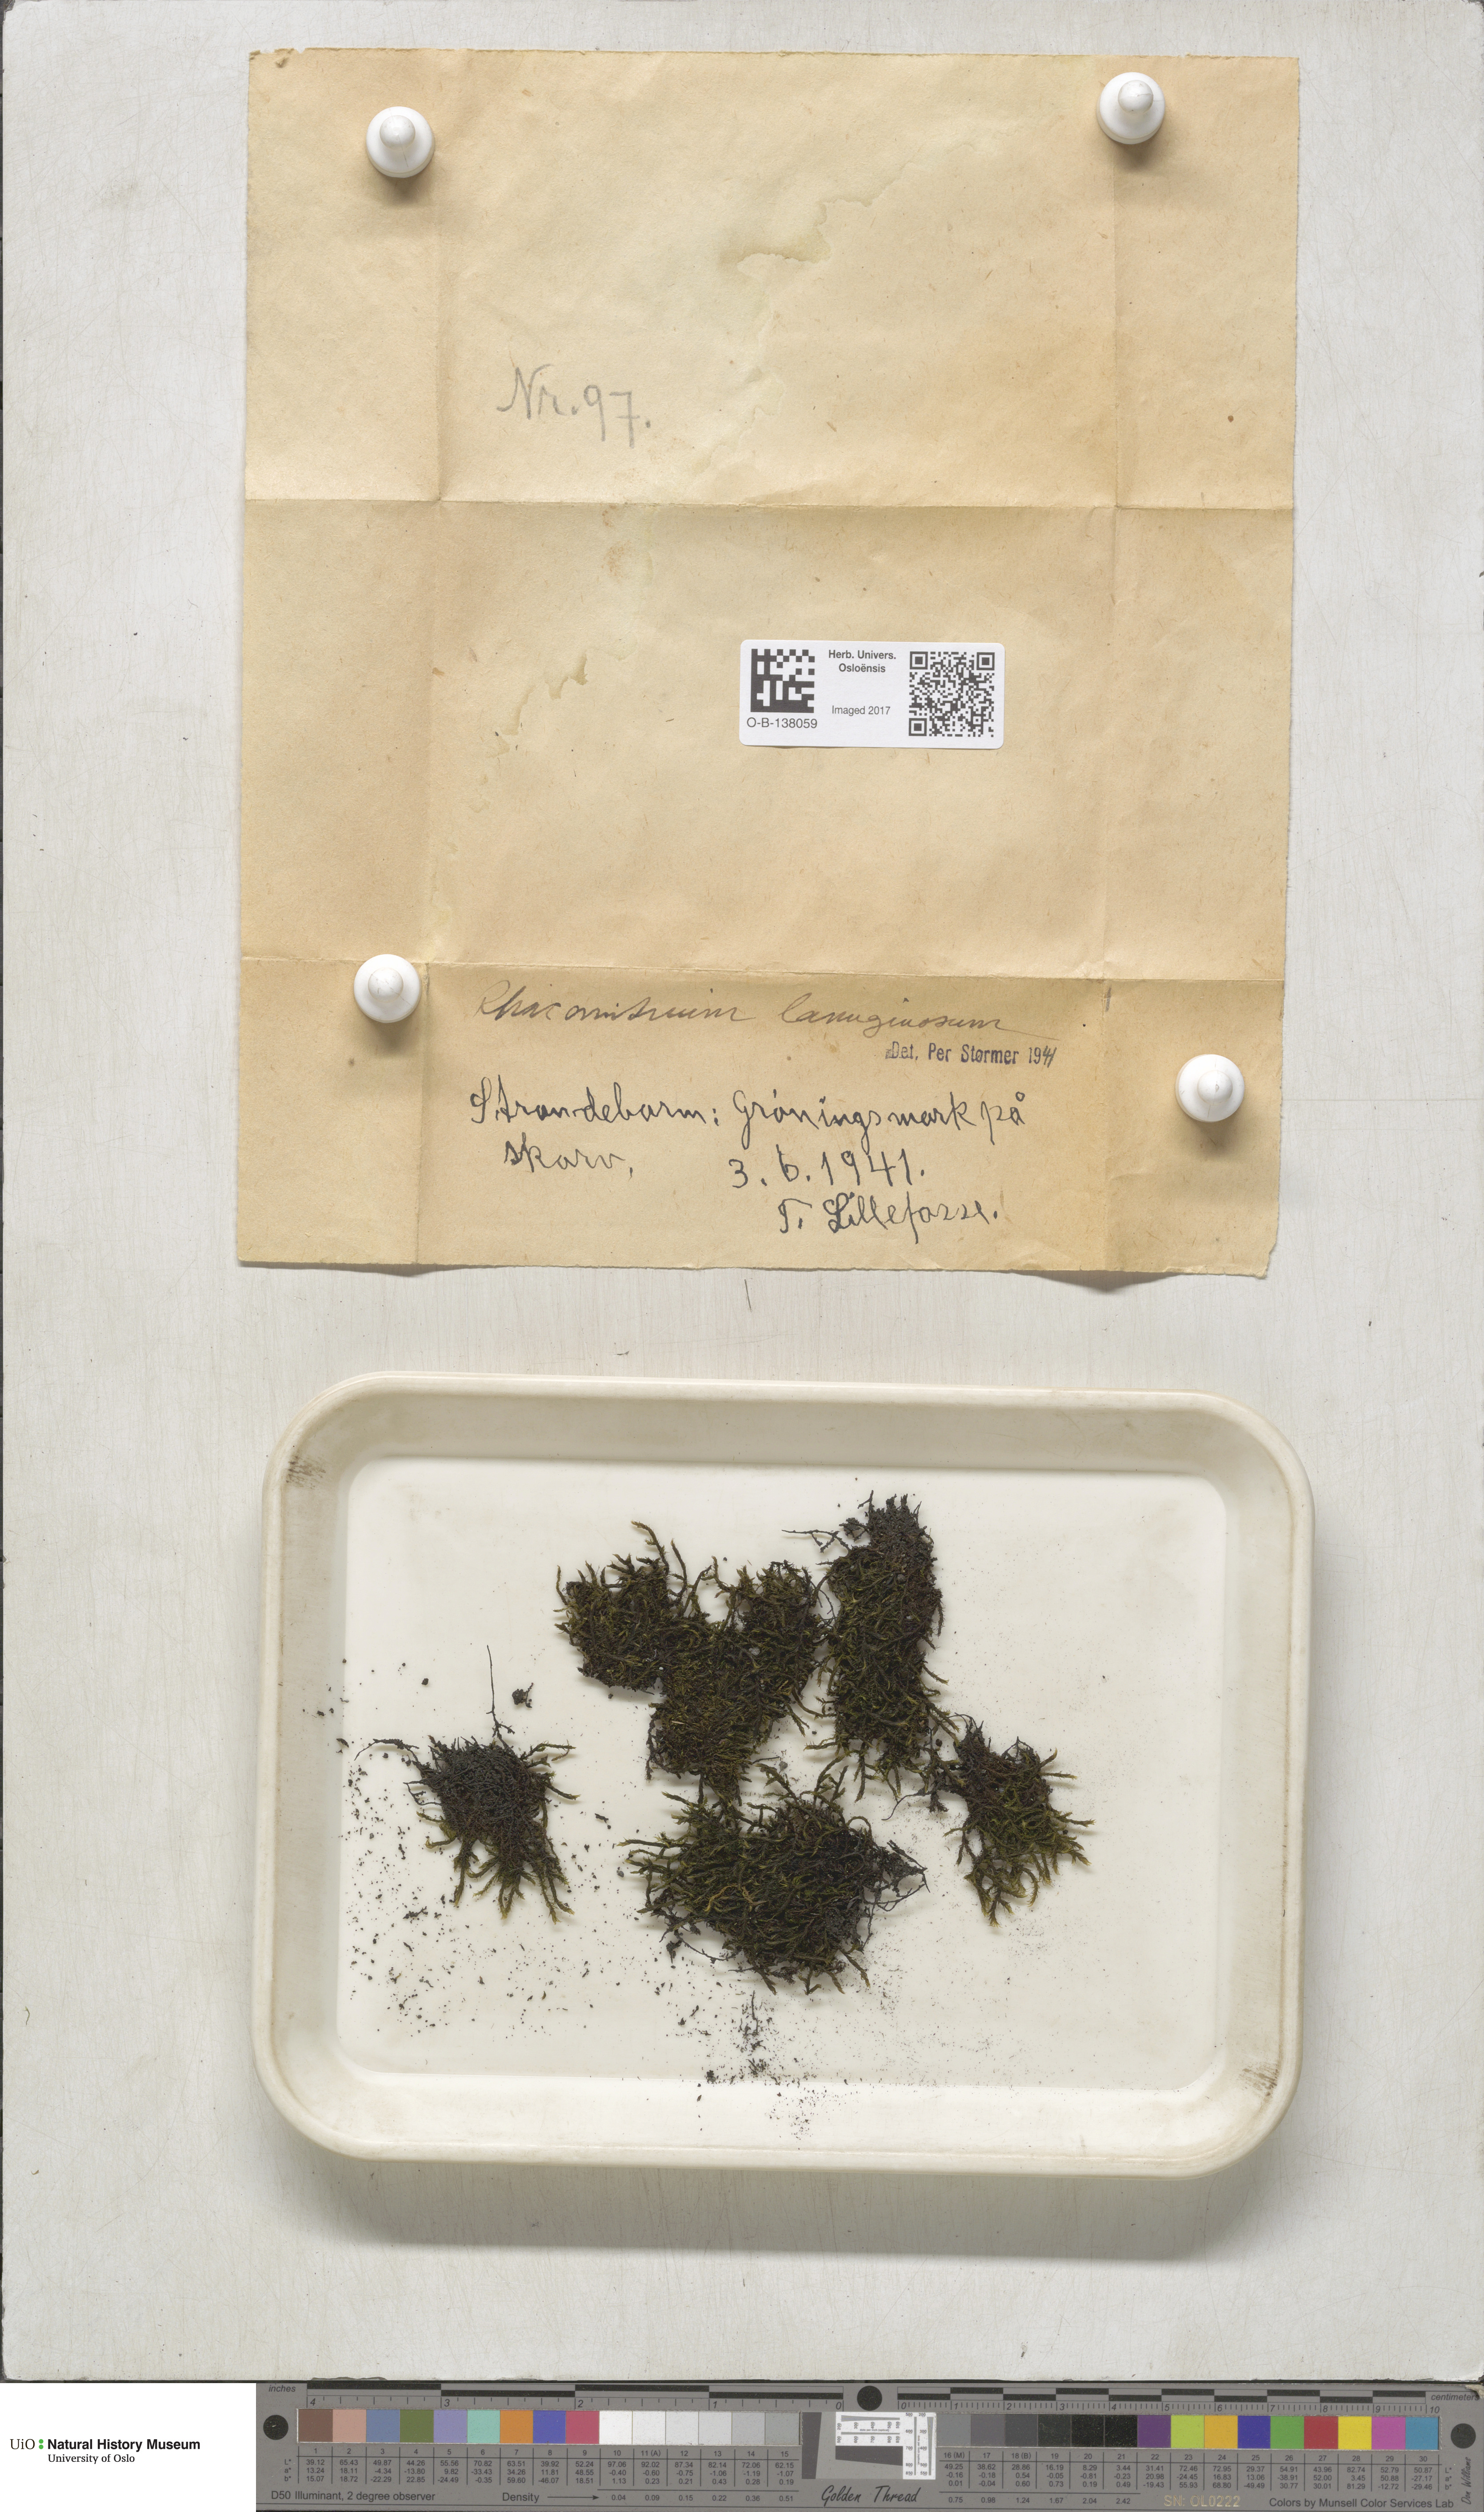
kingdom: Plantae
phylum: Bryophyta
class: Bryopsida
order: Grimmiales
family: Grimmiaceae
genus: Racomitrium
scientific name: Racomitrium lanuginosum
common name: Hoary rock moss
